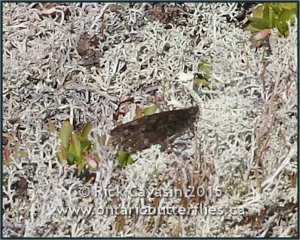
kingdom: Animalia
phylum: Arthropoda
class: Insecta
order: Lepidoptera
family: Nymphalidae
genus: Oeneis
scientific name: Oeneis jutta
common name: Jutta Arctic
